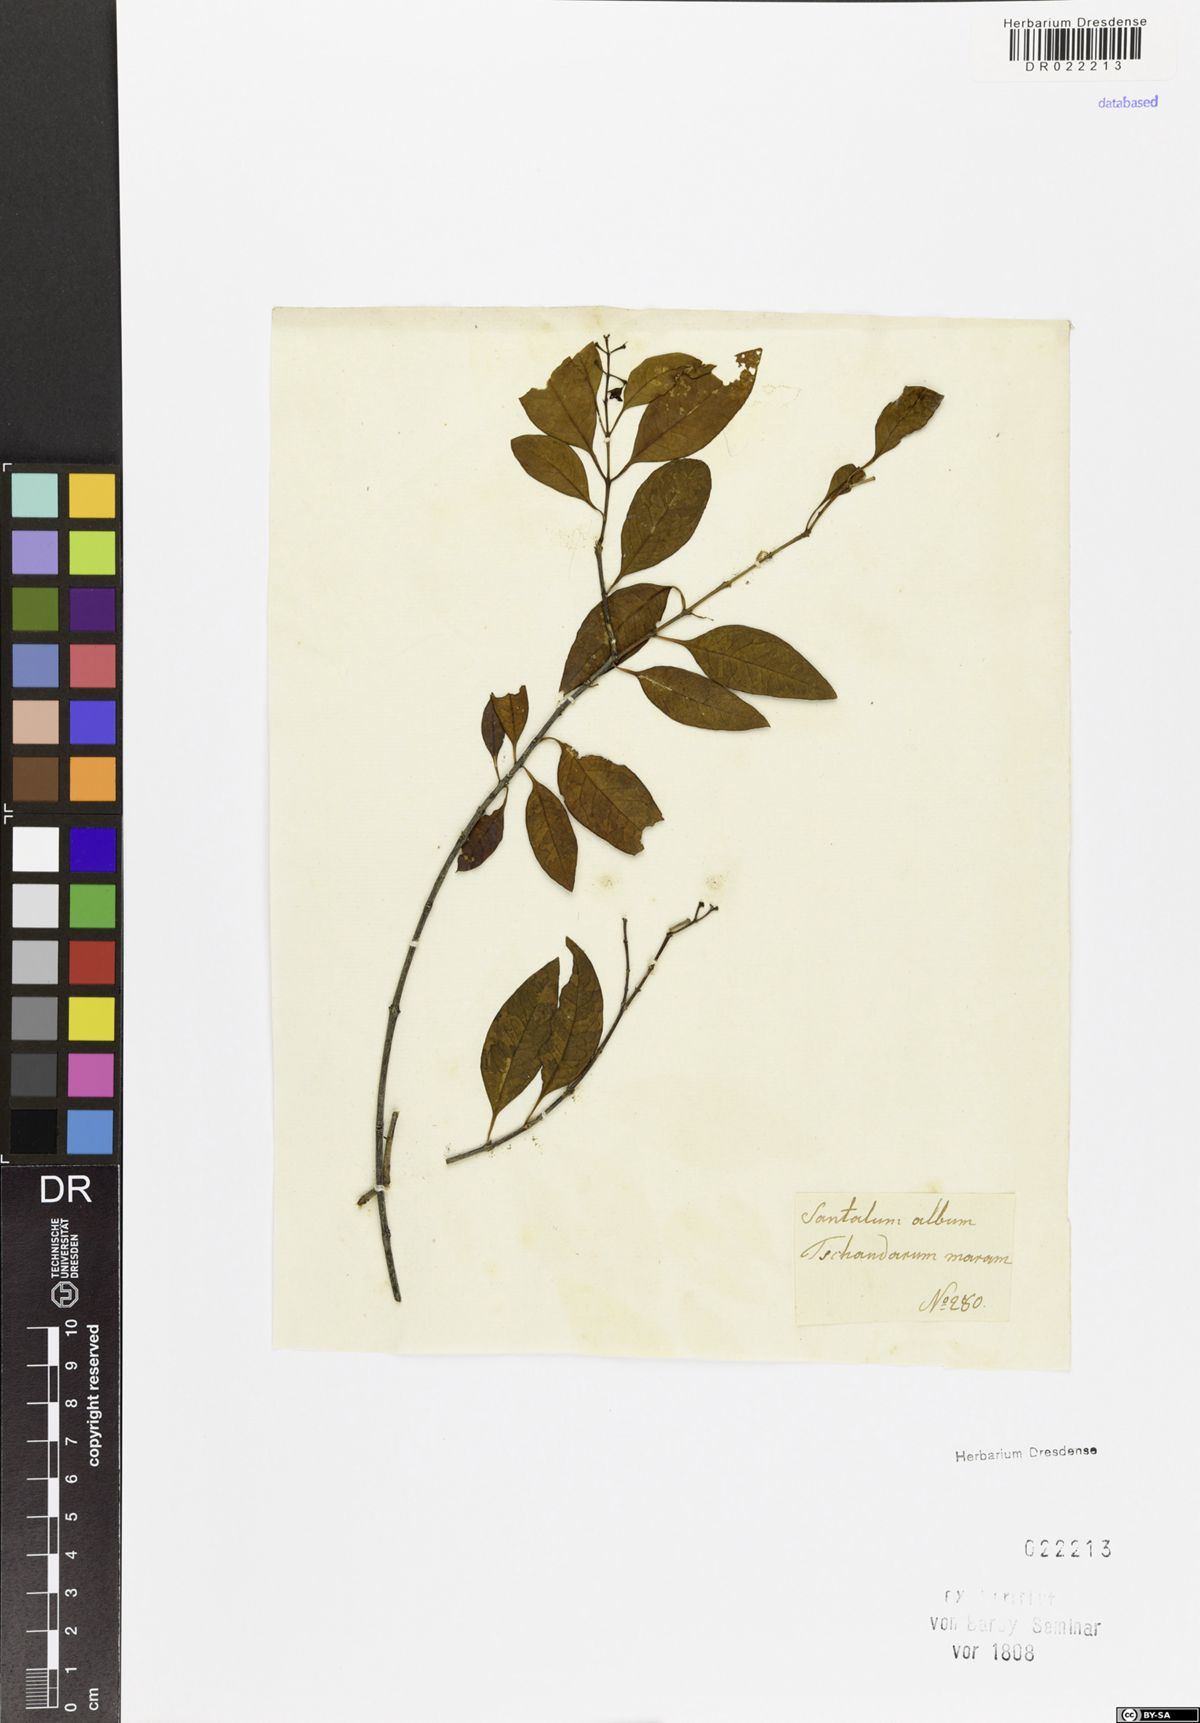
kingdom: Plantae
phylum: Tracheophyta
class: Magnoliopsida
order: Santalales
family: Santalaceae
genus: Santalum
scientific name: Santalum album
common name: Indian sandalwood
